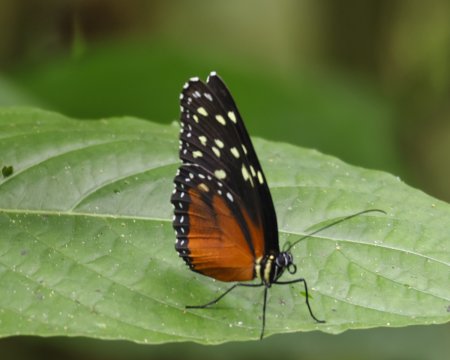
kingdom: Animalia
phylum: Arthropoda
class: Insecta
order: Lepidoptera
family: Nymphalidae
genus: Tithorea
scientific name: Tithorea tarricina
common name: Cream-spotted Tigerwing
